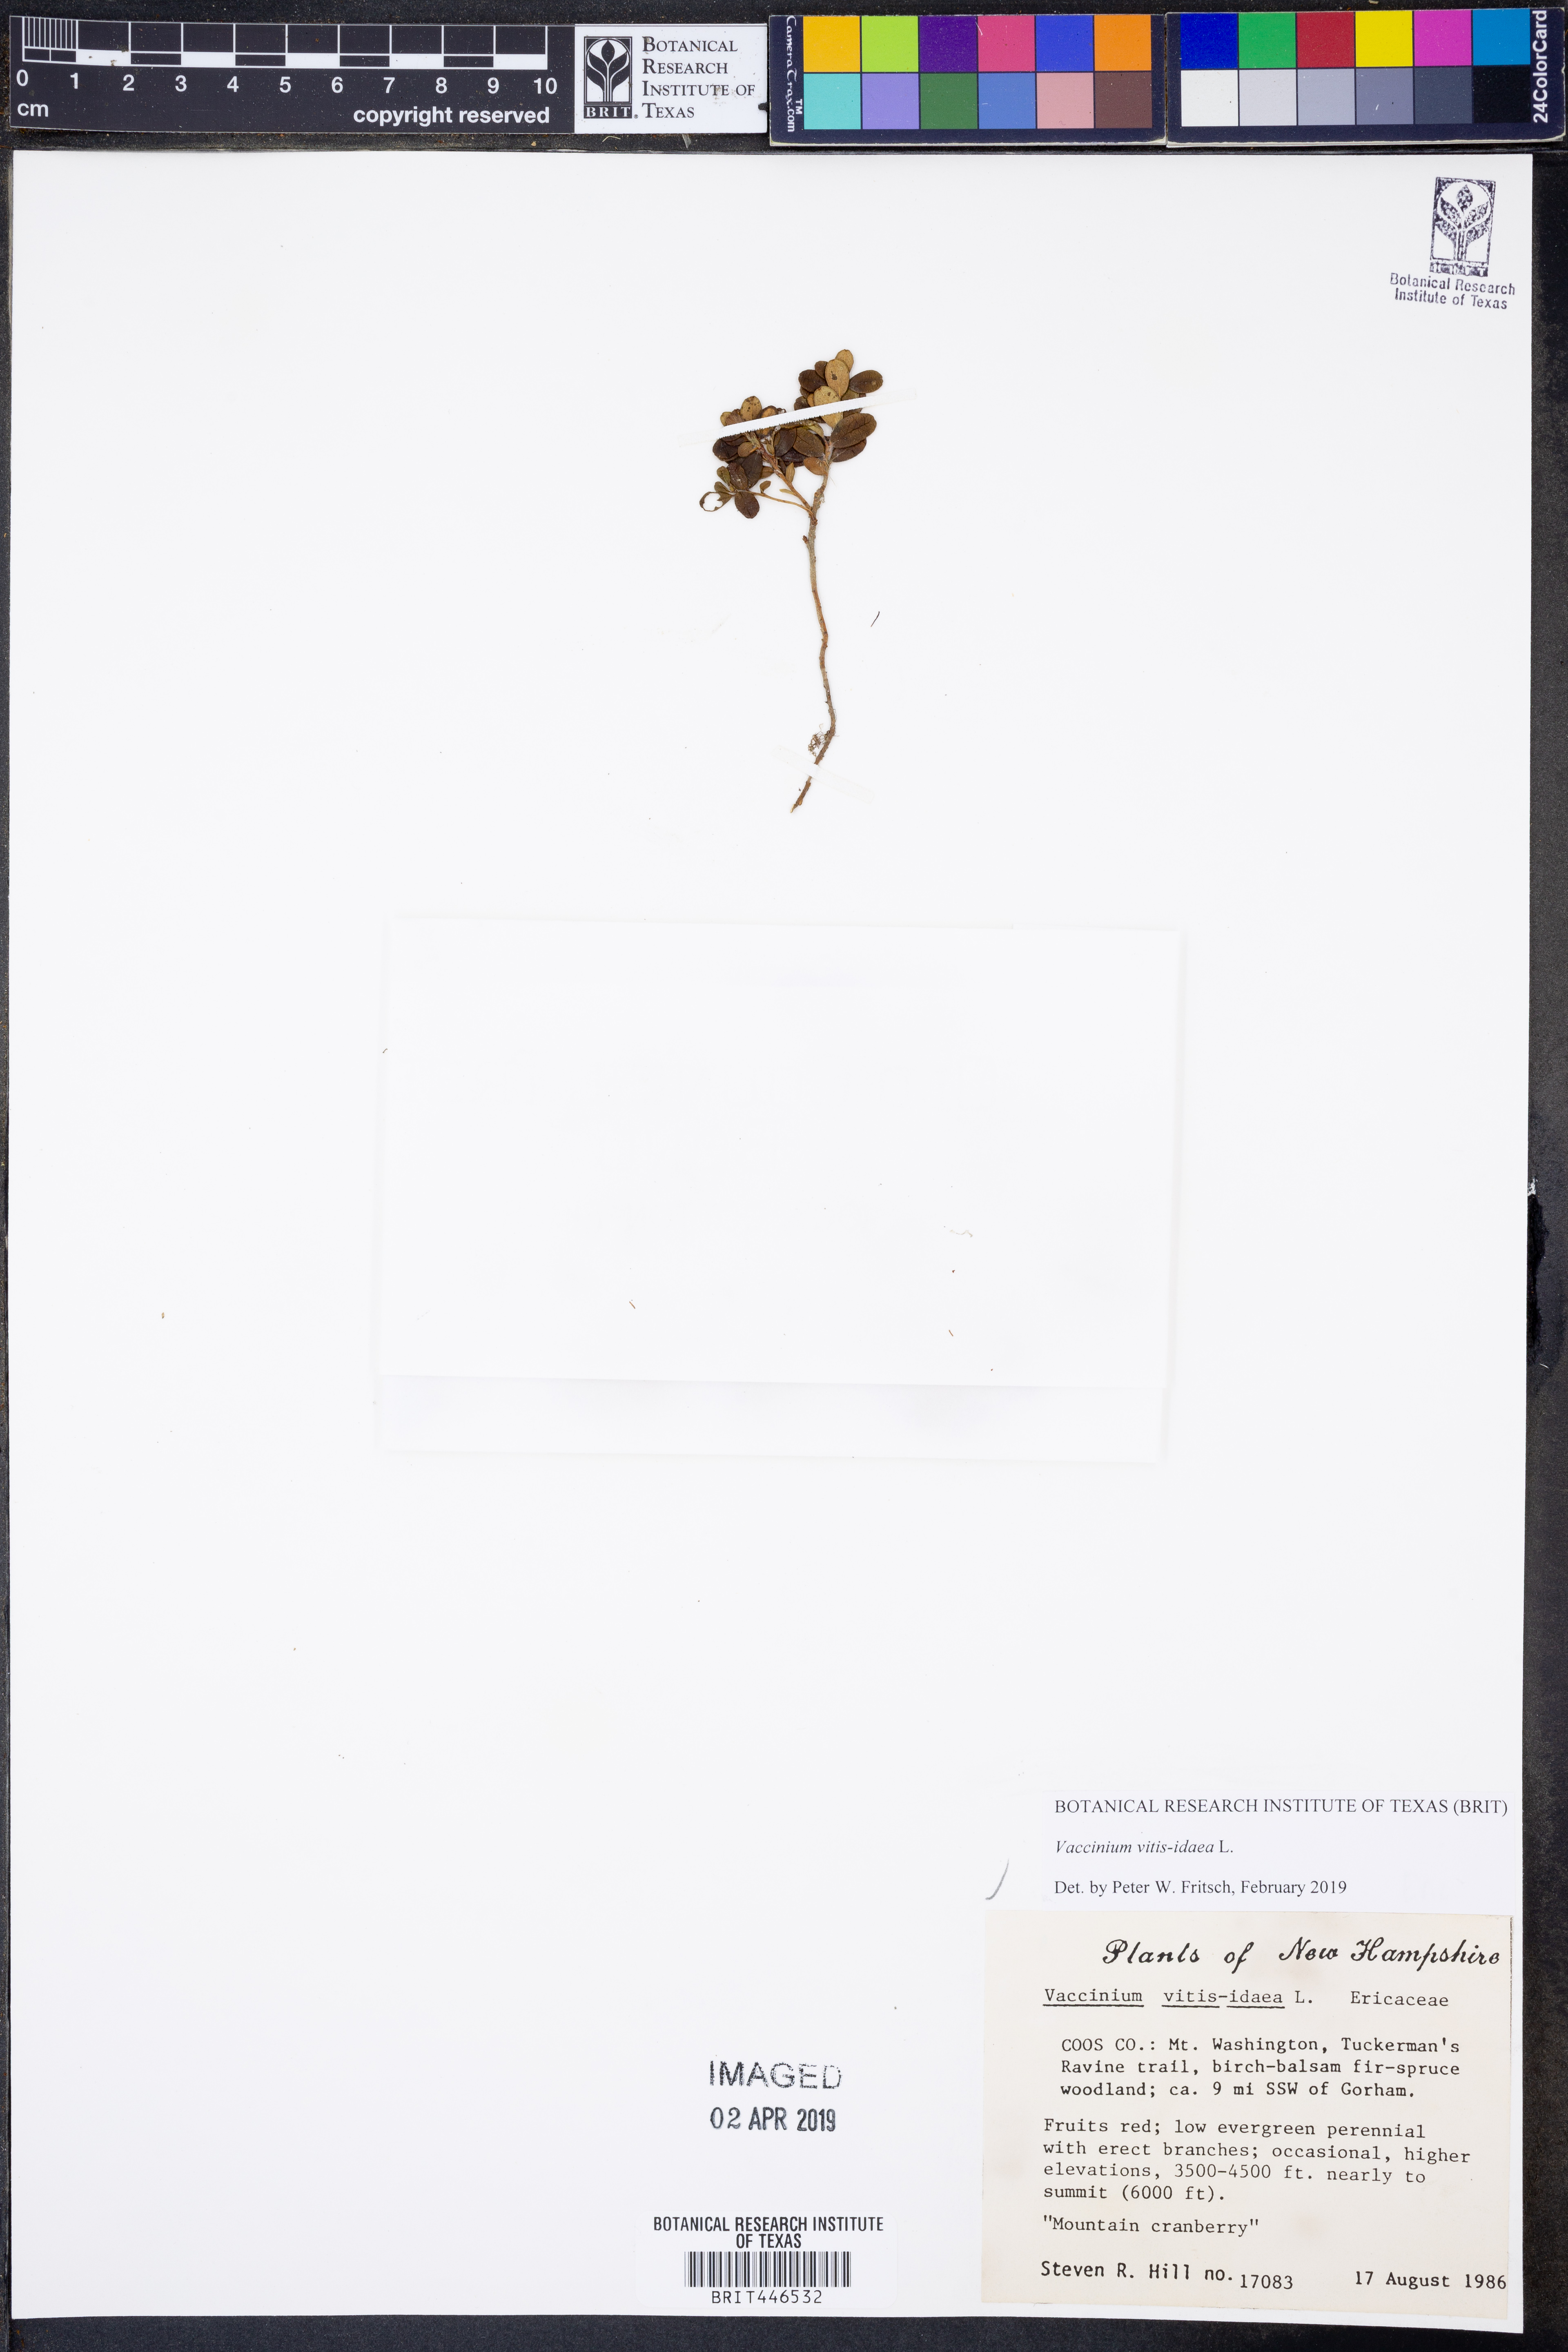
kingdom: Plantae
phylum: Tracheophyta
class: Magnoliopsida
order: Ericales
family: Ericaceae
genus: Vaccinium
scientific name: Vaccinium vitis-idaea
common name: Cowberry
